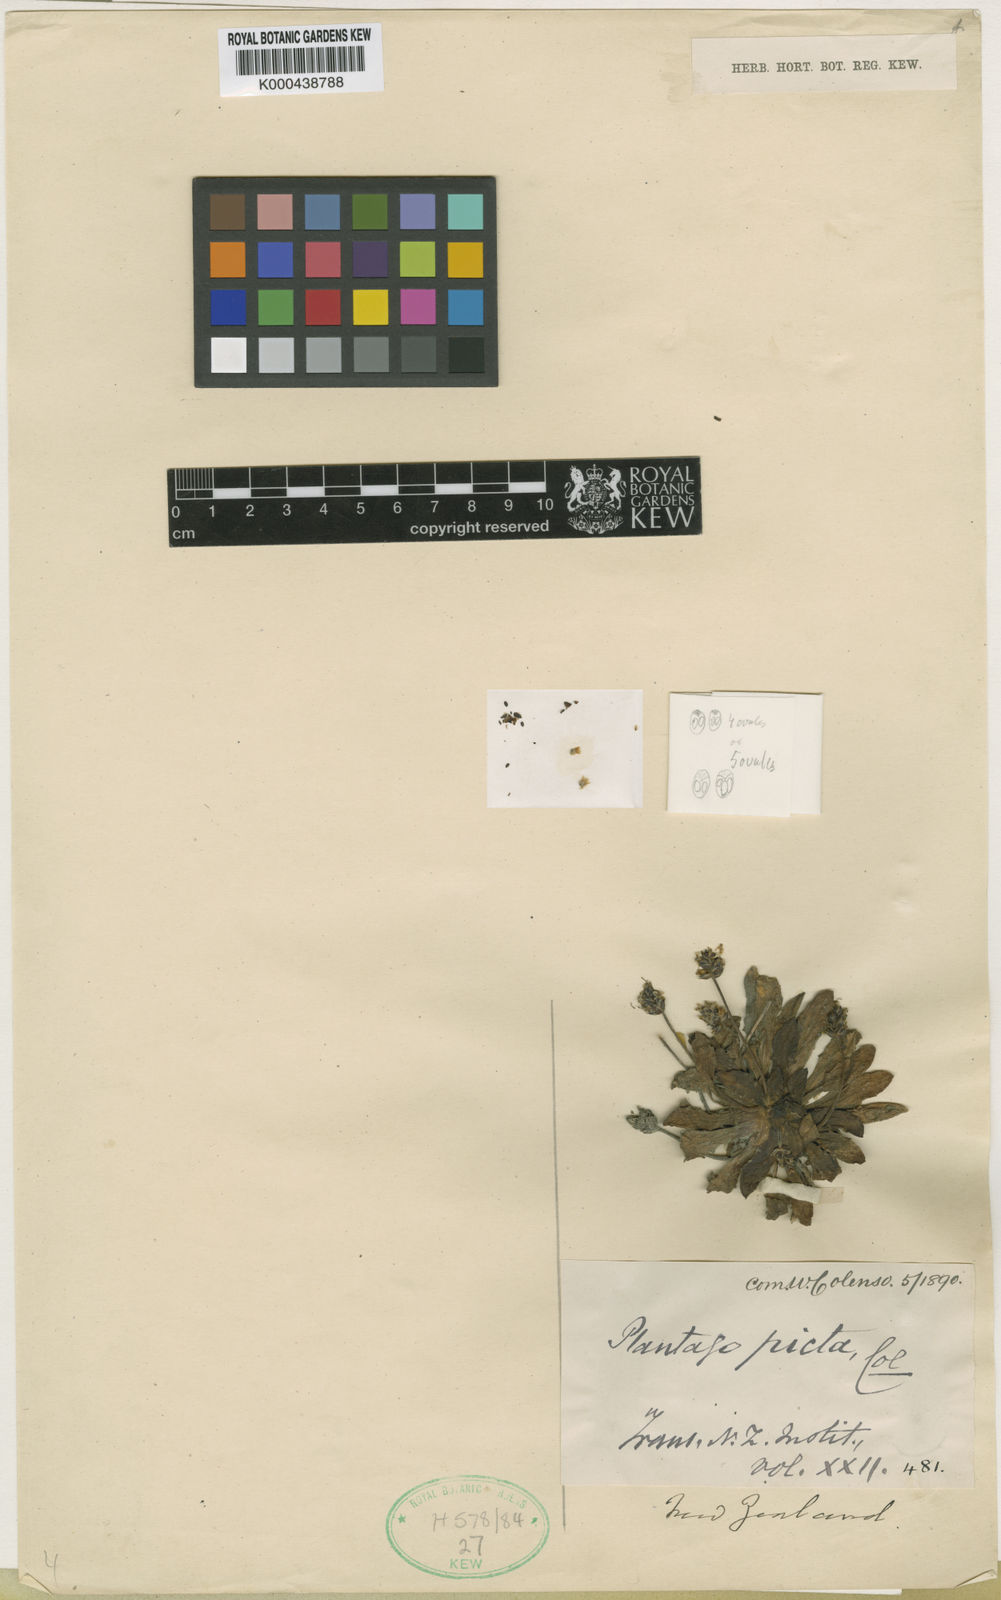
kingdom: Plantae
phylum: Tracheophyta
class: Magnoliopsida
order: Lamiales
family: Plantaginaceae
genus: Plantago
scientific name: Plantago picta
